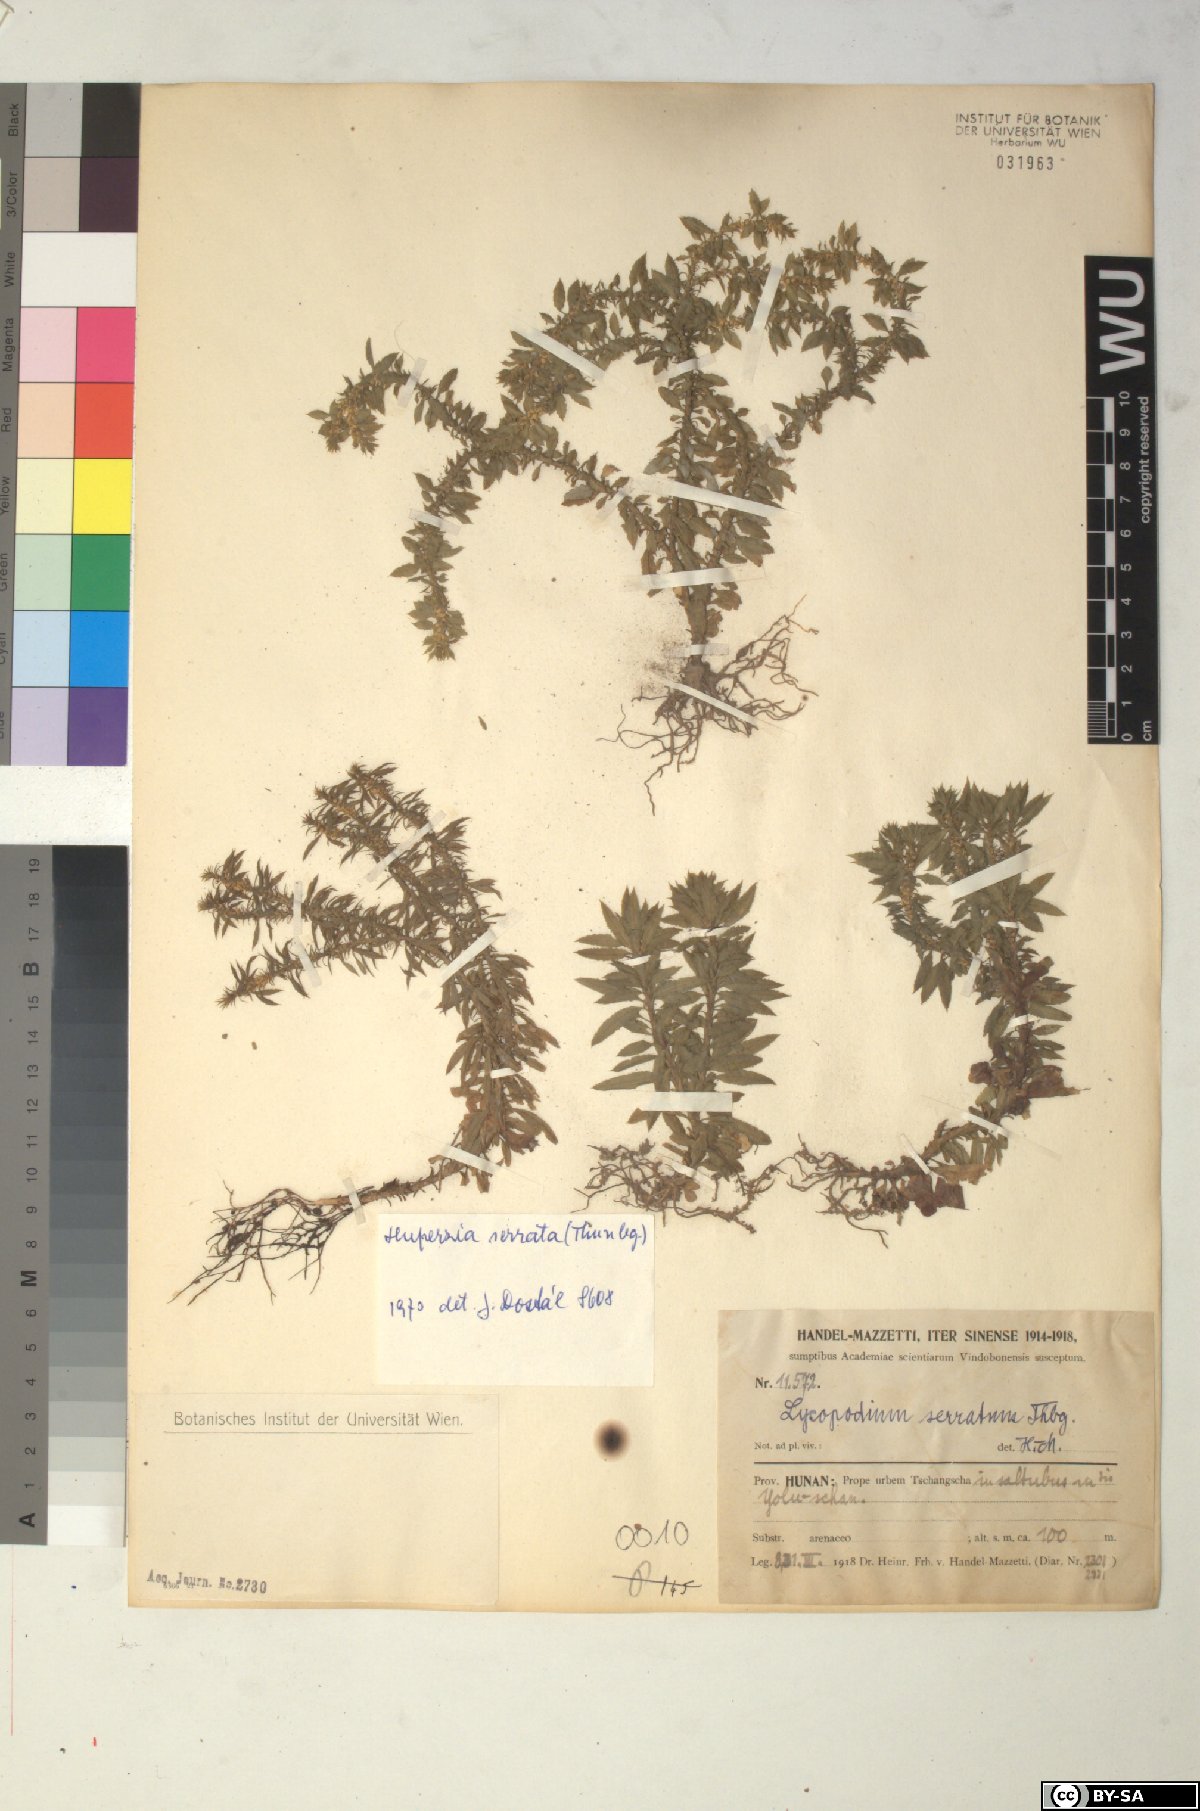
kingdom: Plantae
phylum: Tracheophyta
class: Lycopodiopsida
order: Lycopodiales
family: Lycopodiaceae
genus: Huperzia
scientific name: Huperzia serrata
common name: Toothed club-moss
